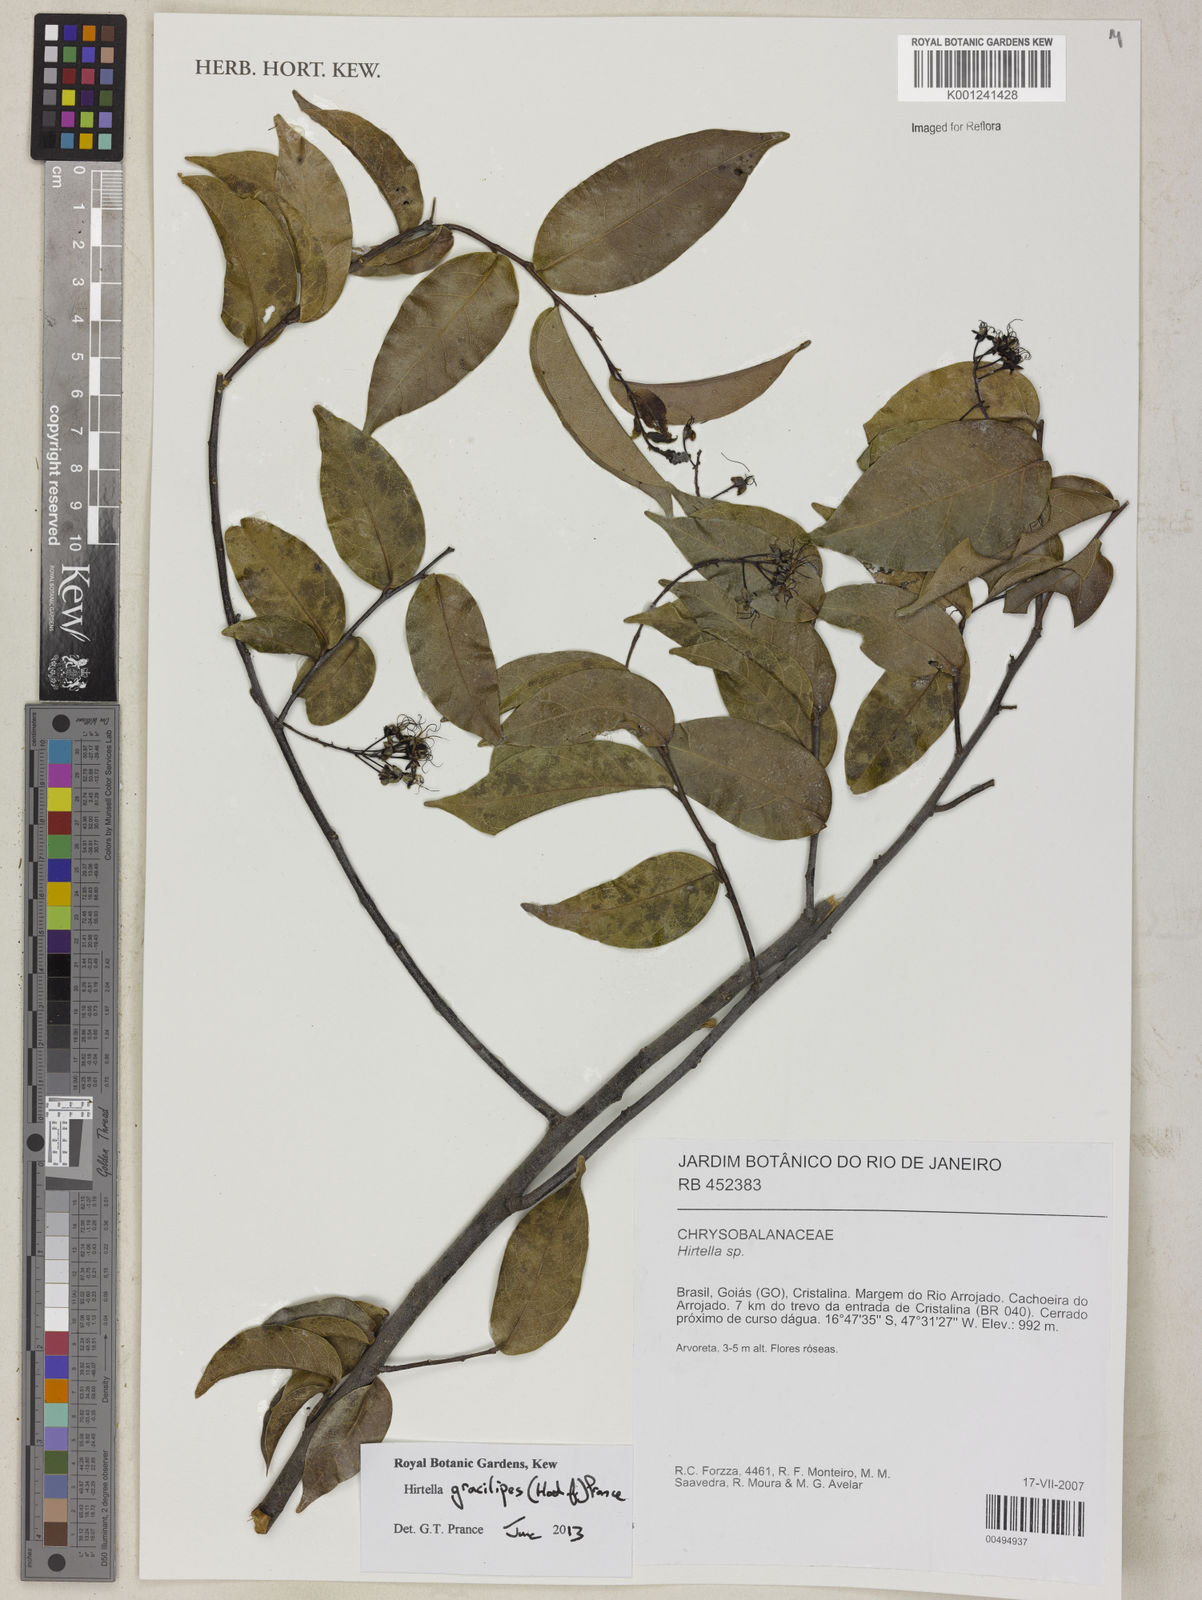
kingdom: Plantae
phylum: Tracheophyta
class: Magnoliopsida
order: Malpighiales
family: Chrysobalanaceae
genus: Hirtella
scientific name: Hirtella gracilipes
